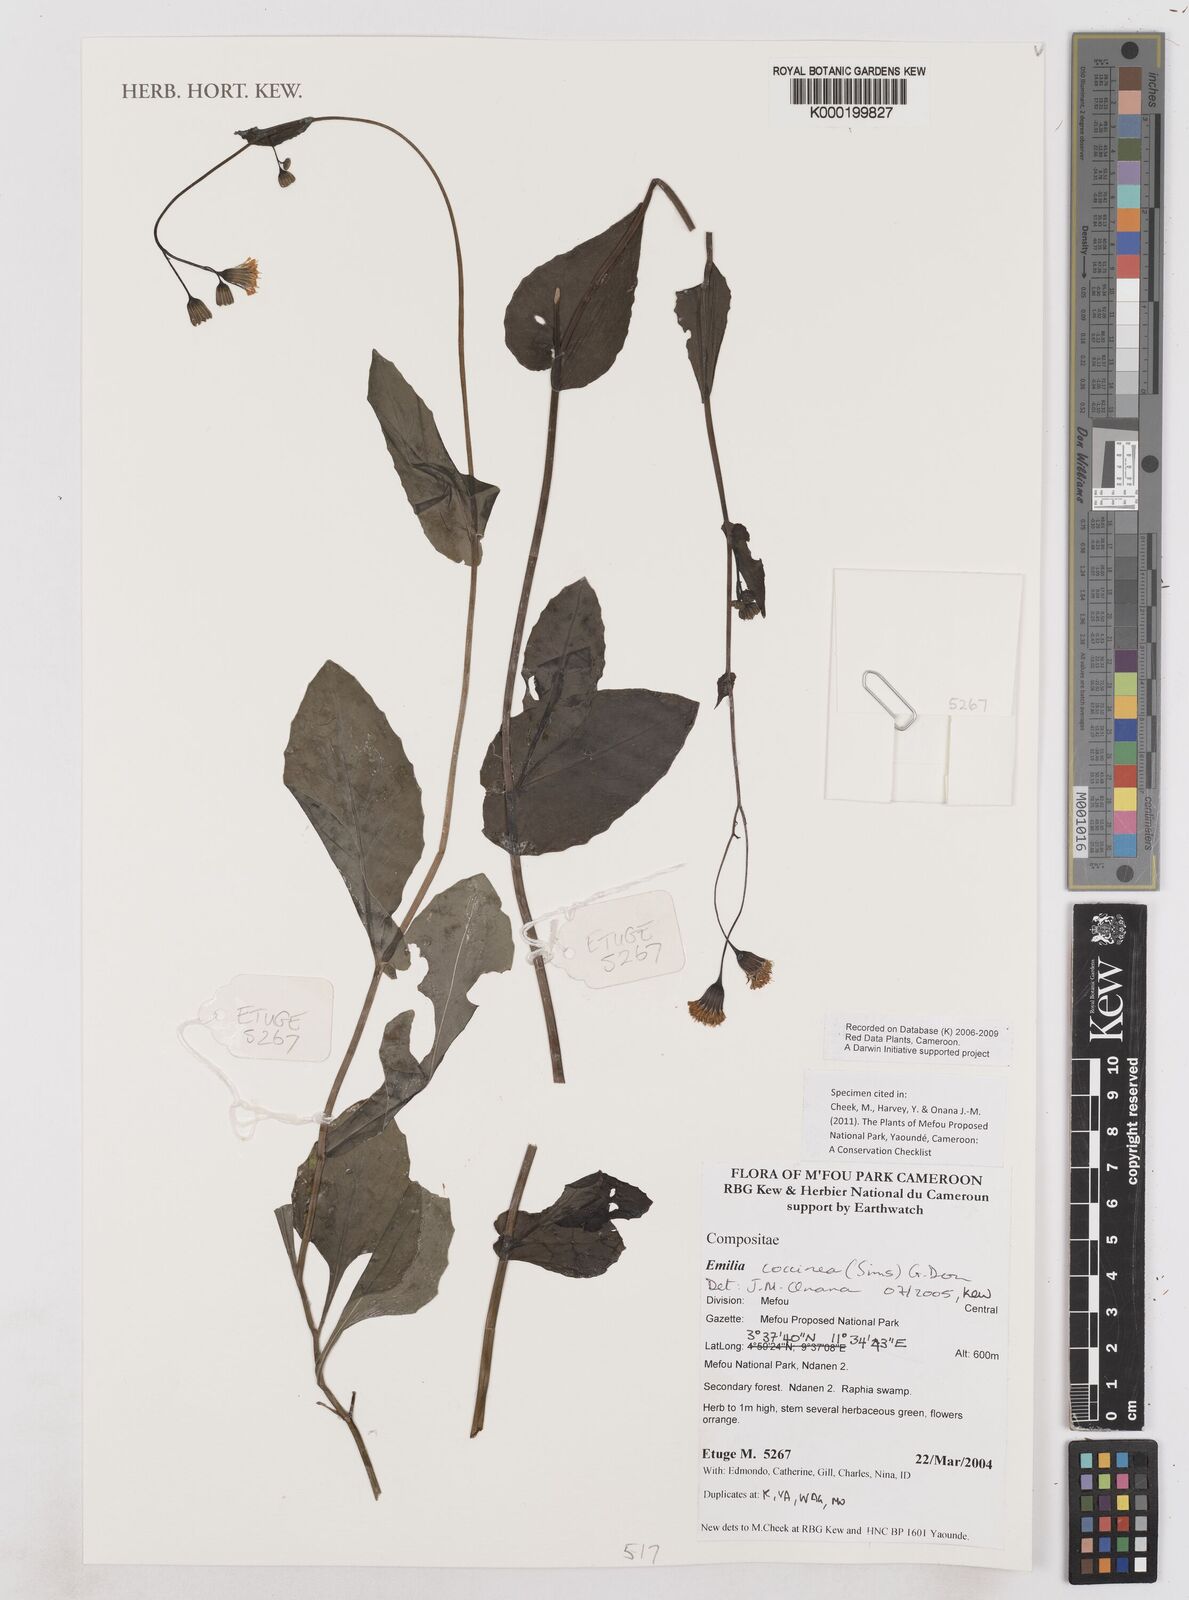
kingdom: Plantae
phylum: Tracheophyta
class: Magnoliopsida
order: Asterales
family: Asteraceae
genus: Emilia
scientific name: Emilia coccinea
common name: Scarlet tasselflower
